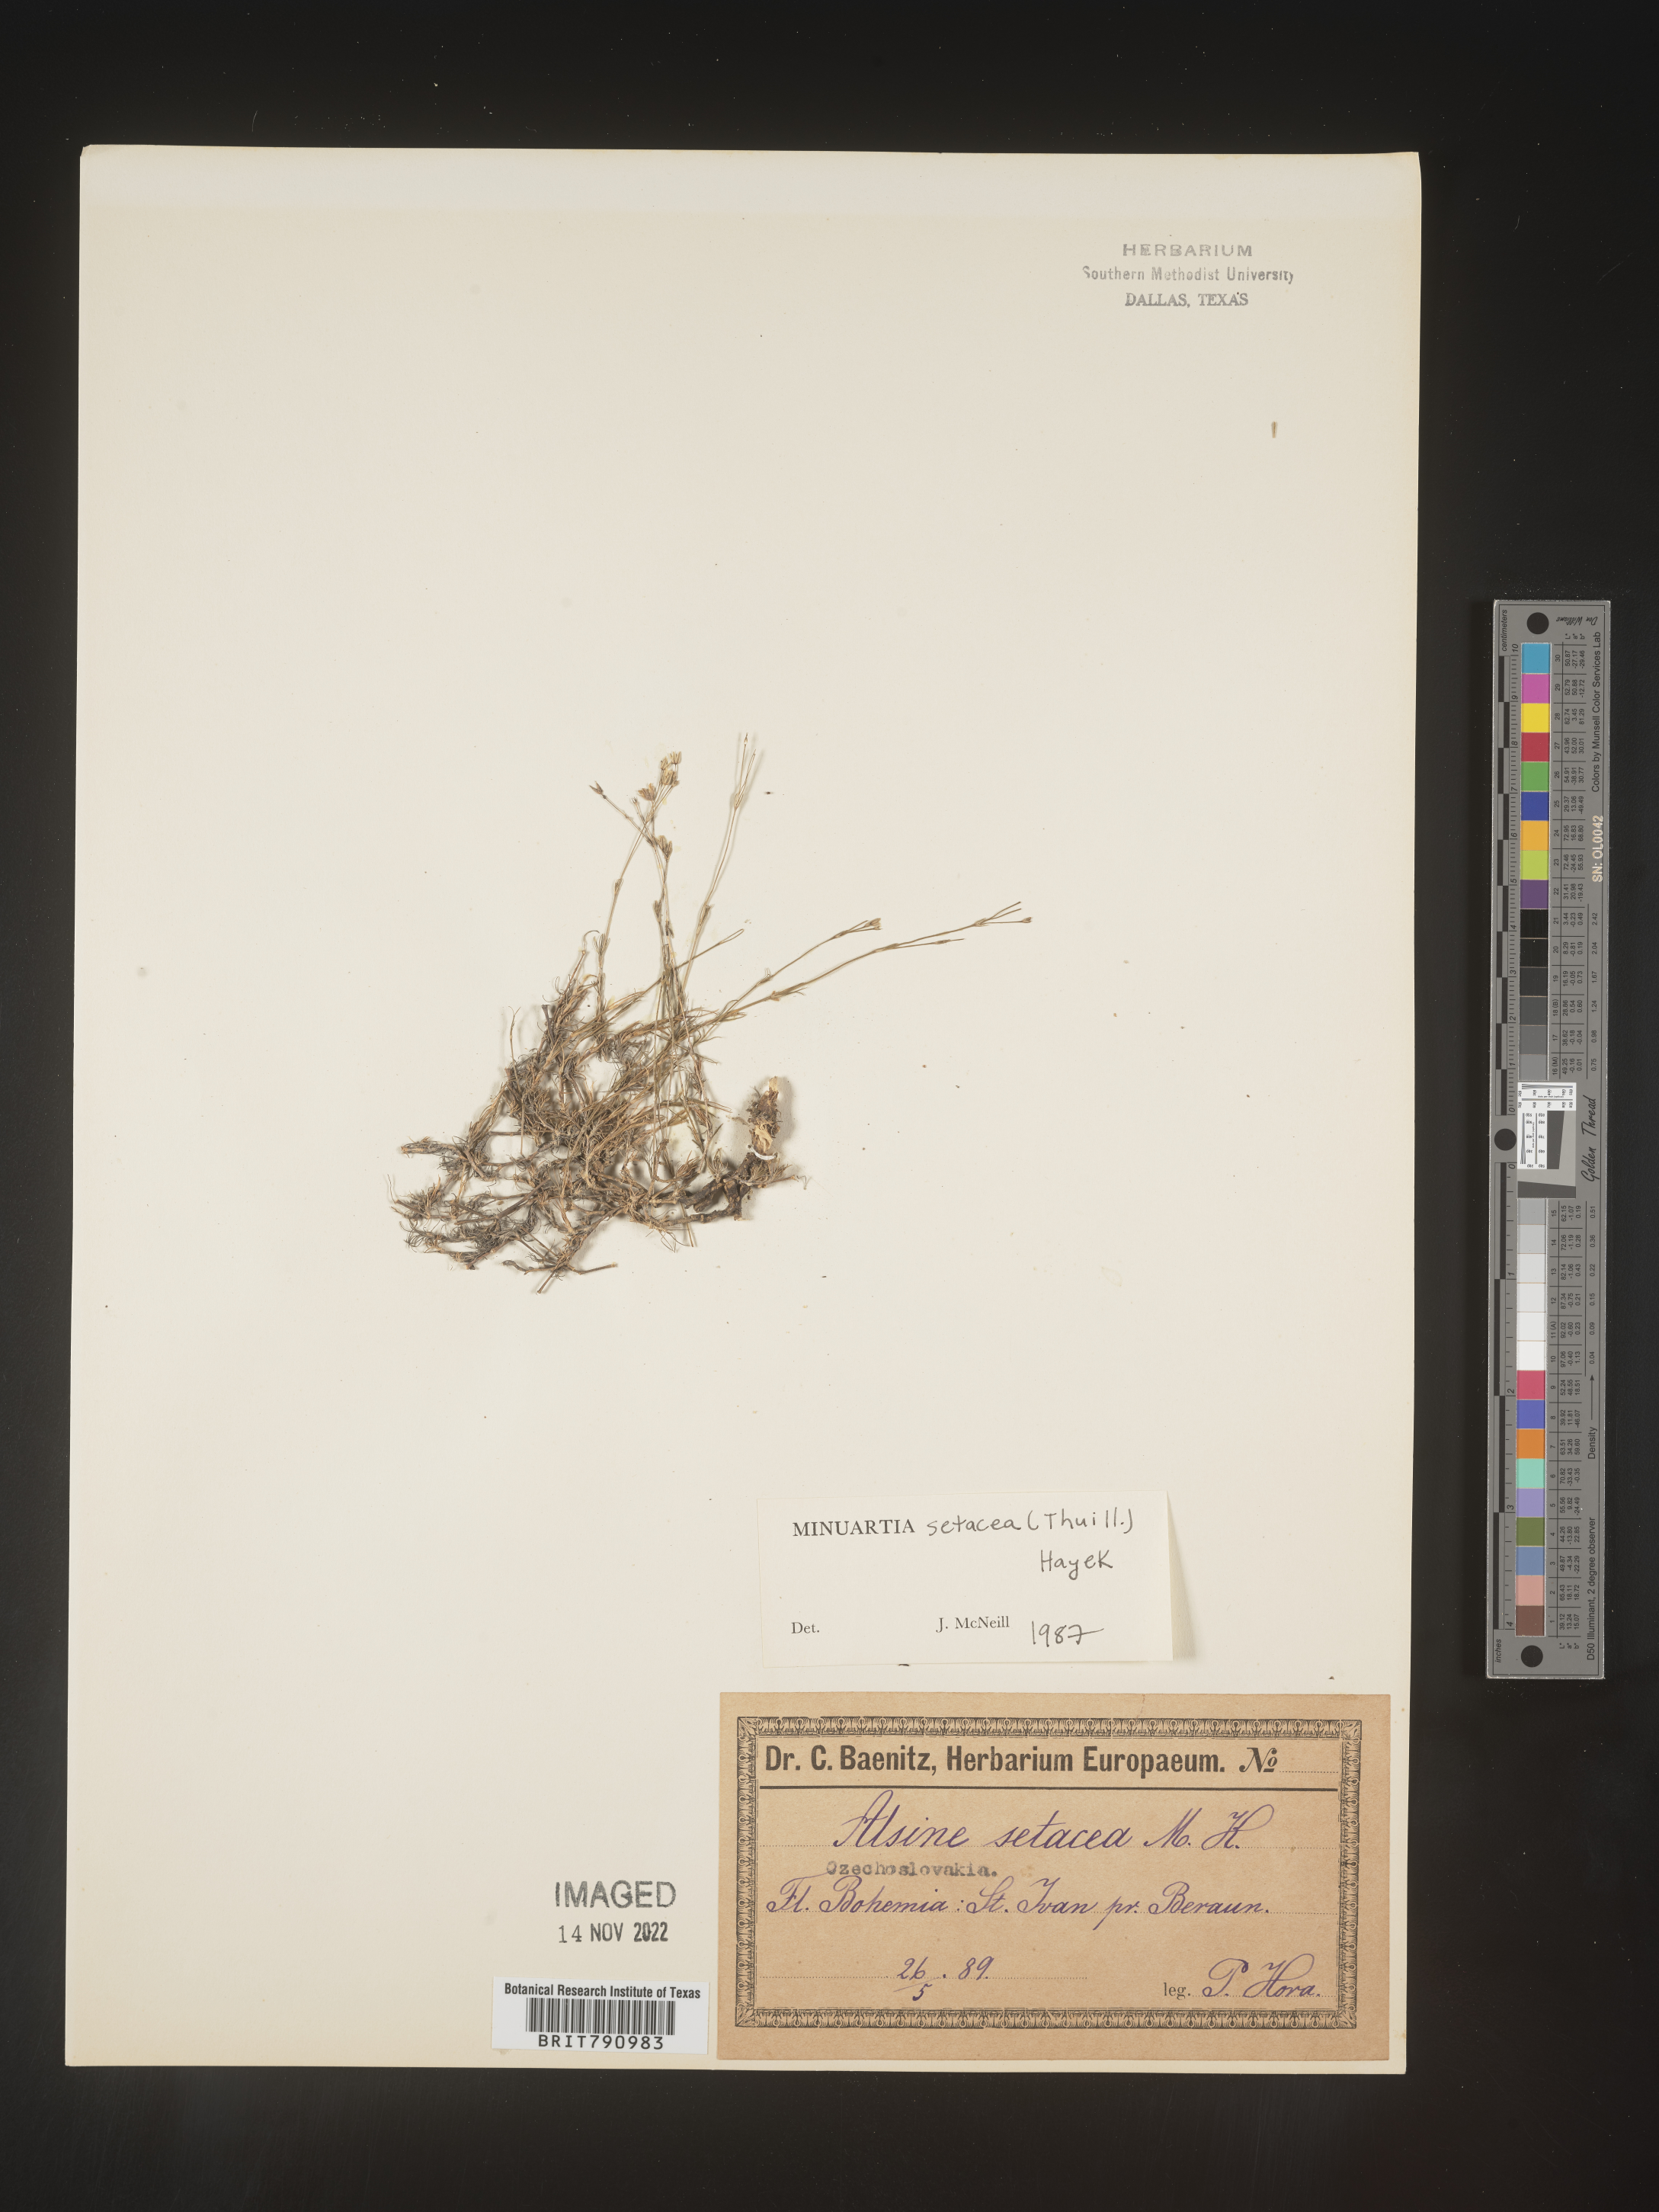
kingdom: Plantae
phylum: Tracheophyta
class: Magnoliopsida
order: Caryophyllales
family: Caryophyllaceae
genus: Minuartia
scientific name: Minuartia
